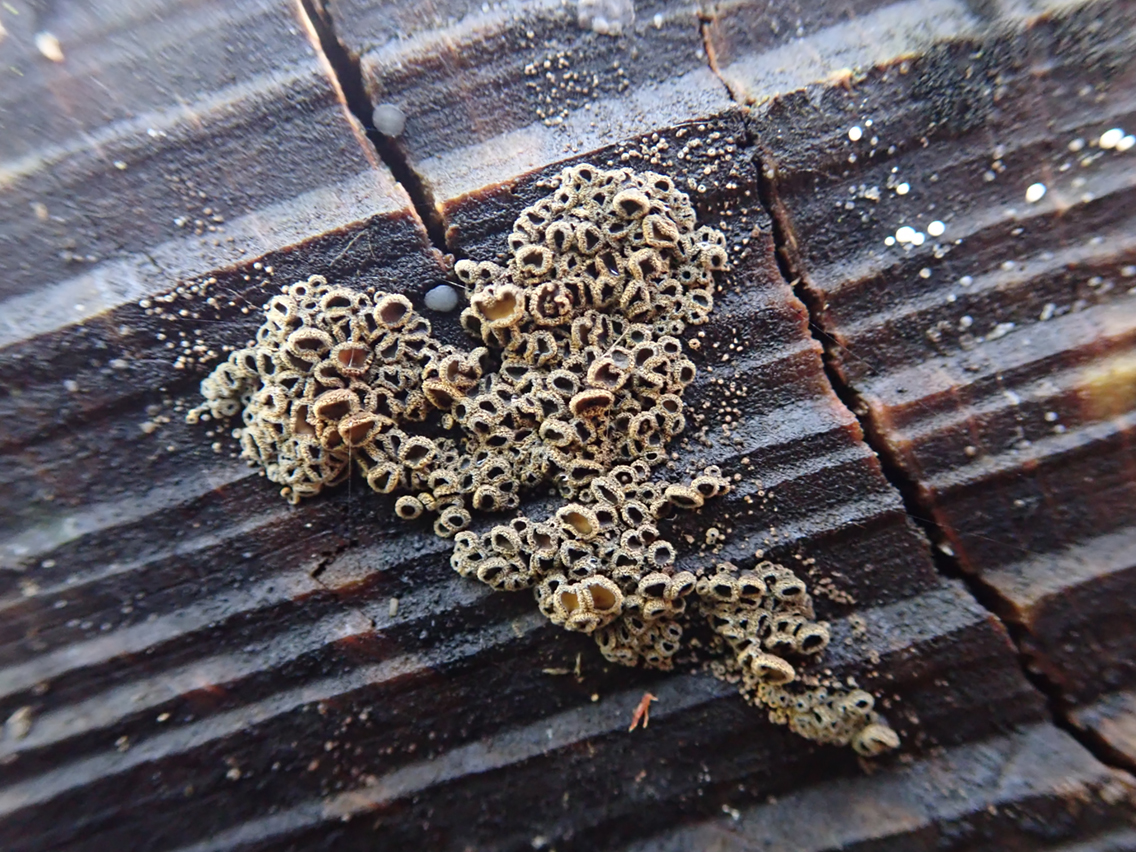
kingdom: Fungi
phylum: Ascomycota
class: Leotiomycetes
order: Helotiales
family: Lachnaceae
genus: Neodasyscypha
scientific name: Neodasyscypha cerina
